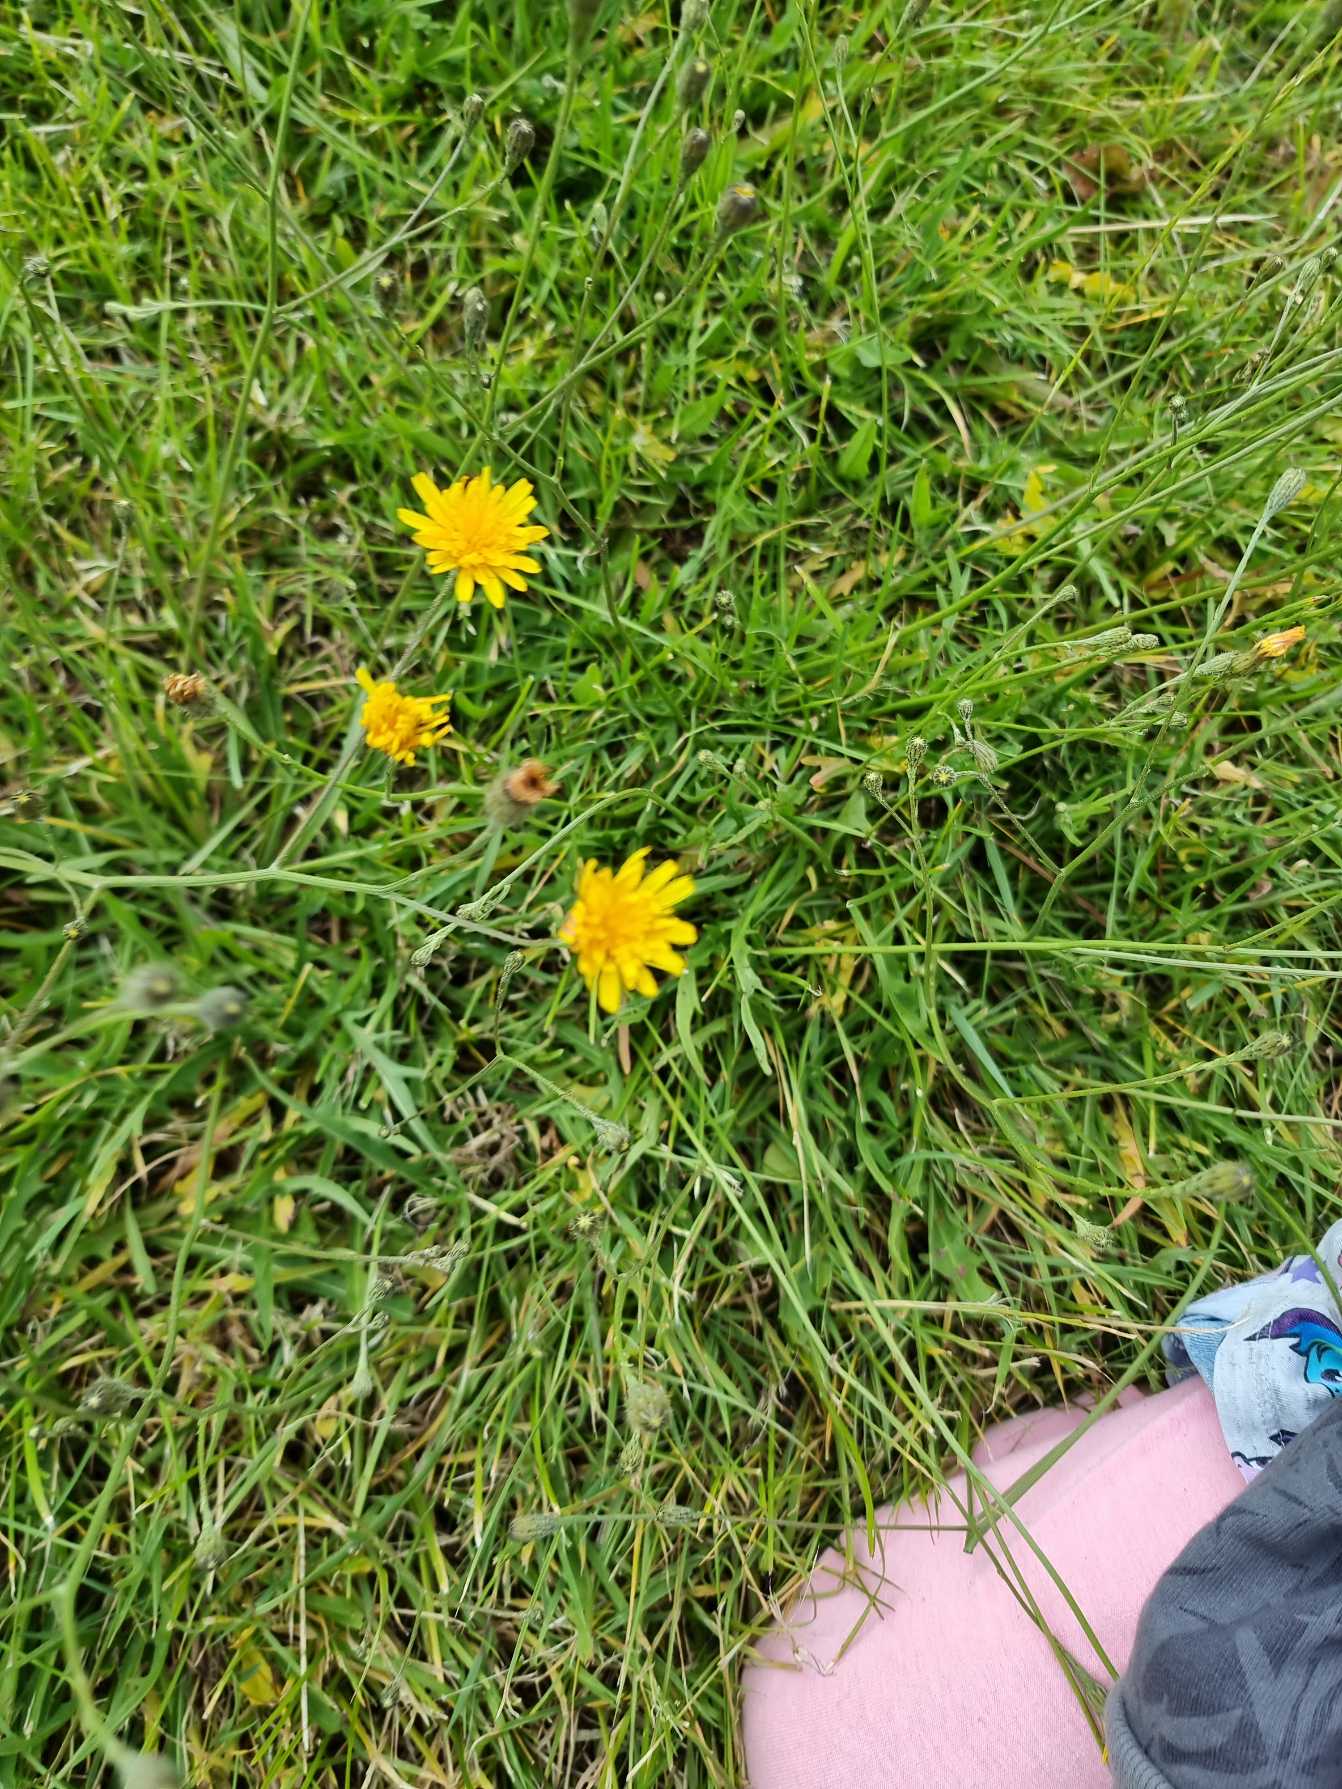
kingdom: Plantae
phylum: Tracheophyta
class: Magnoliopsida
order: Asterales
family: Asteraceae
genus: Scorzoneroides
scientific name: Scorzoneroides autumnalis
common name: Høst-borst
